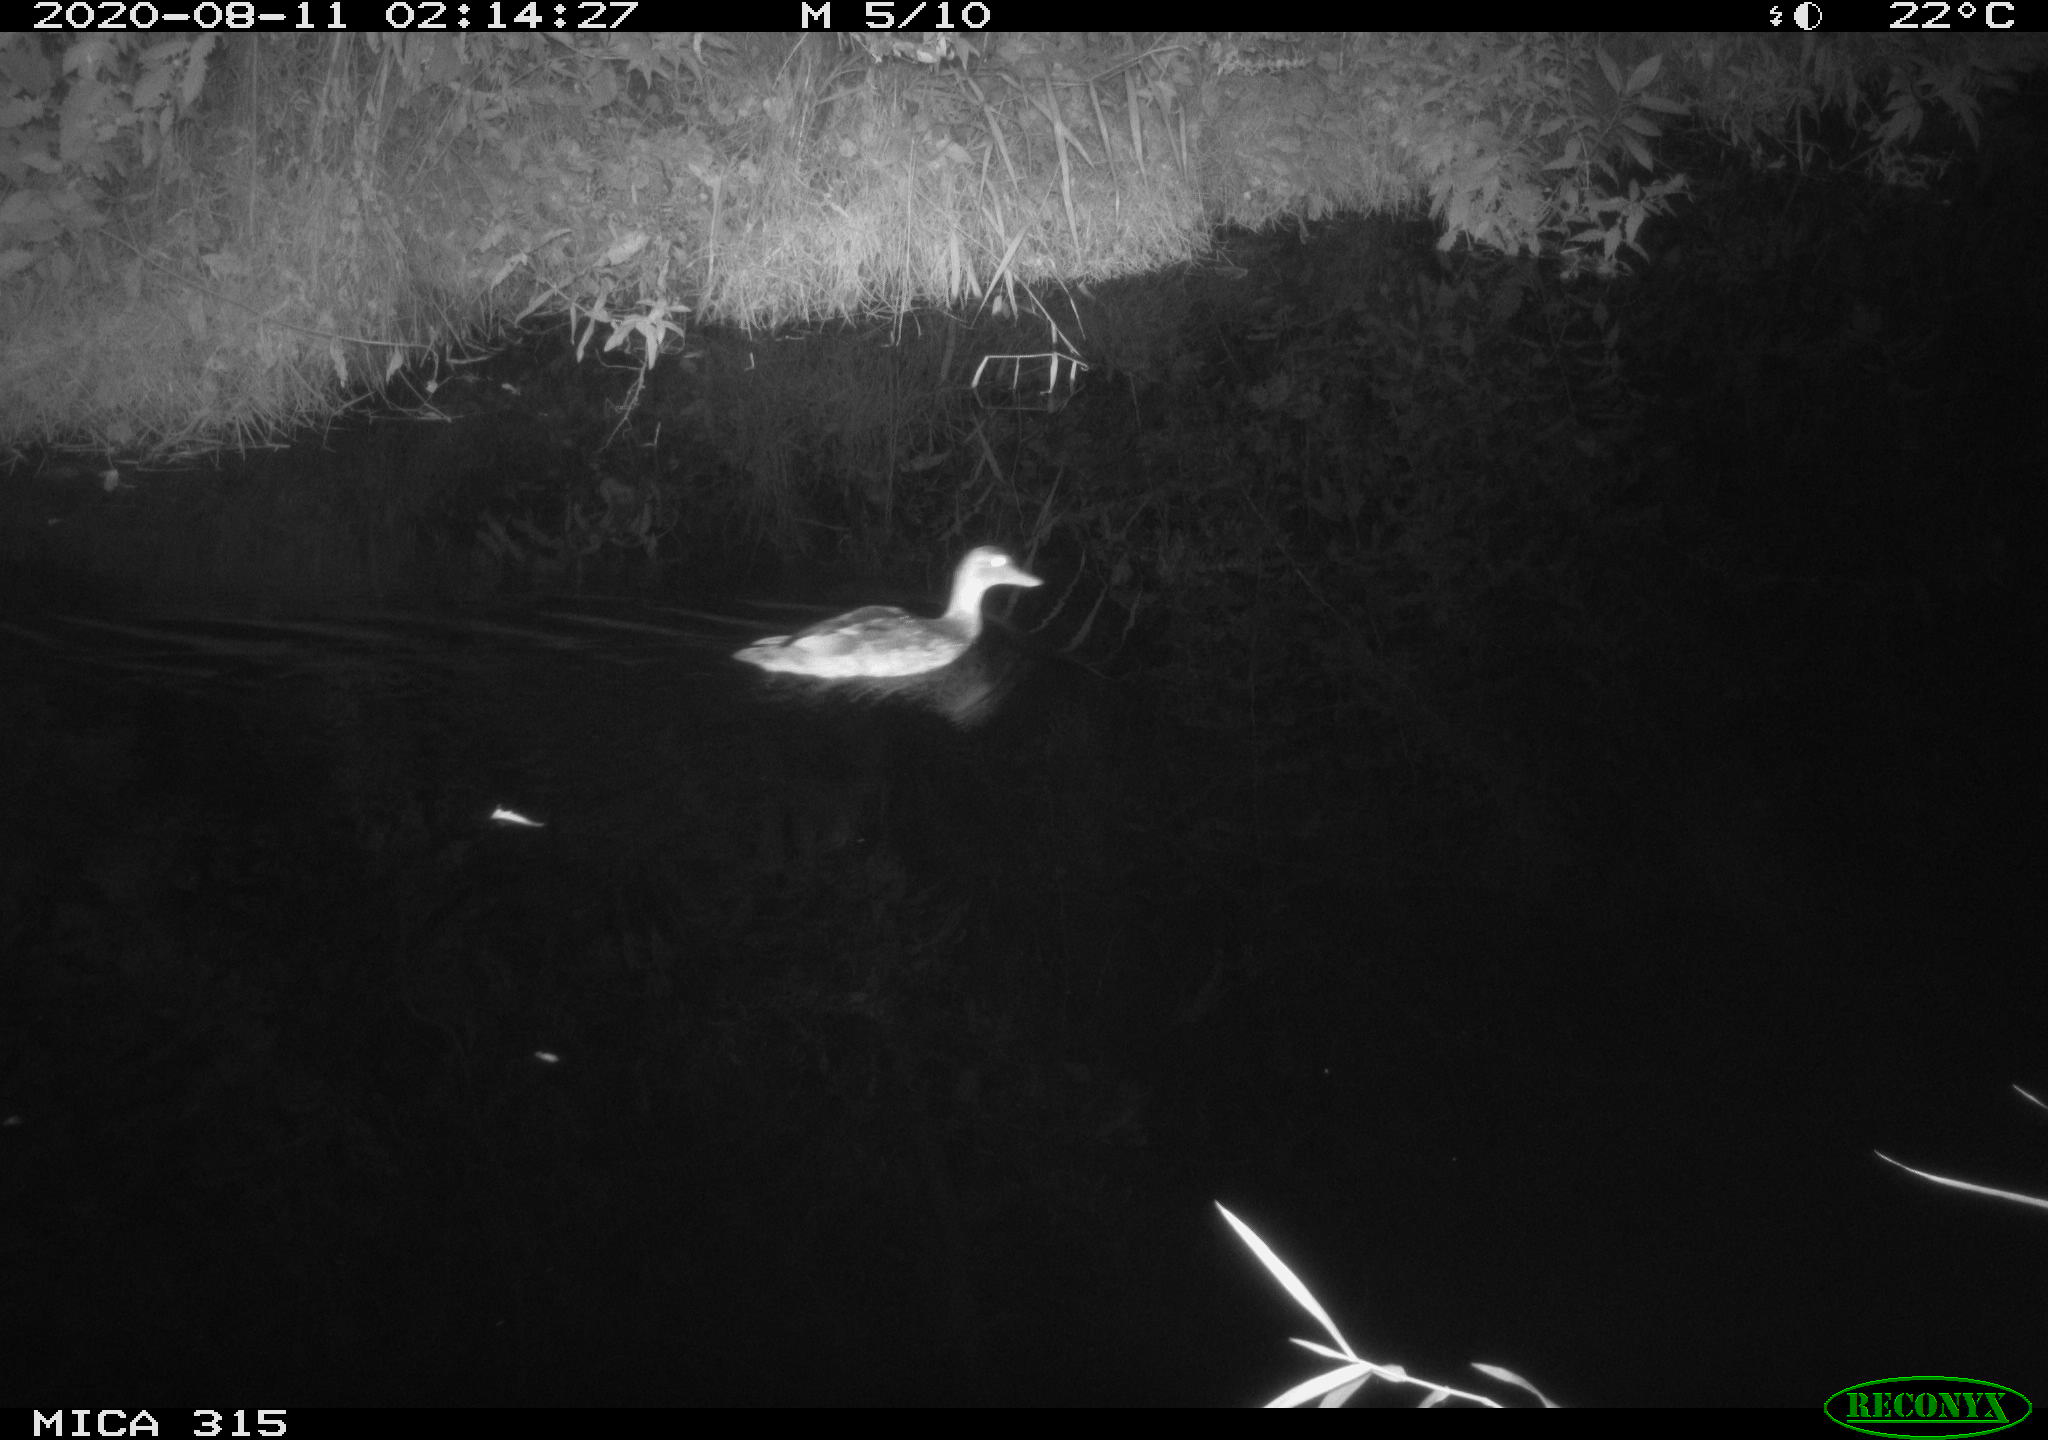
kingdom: Animalia
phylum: Chordata
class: Aves
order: Anseriformes
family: Anatidae
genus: Anas
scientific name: Anas platyrhynchos
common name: Mallard
